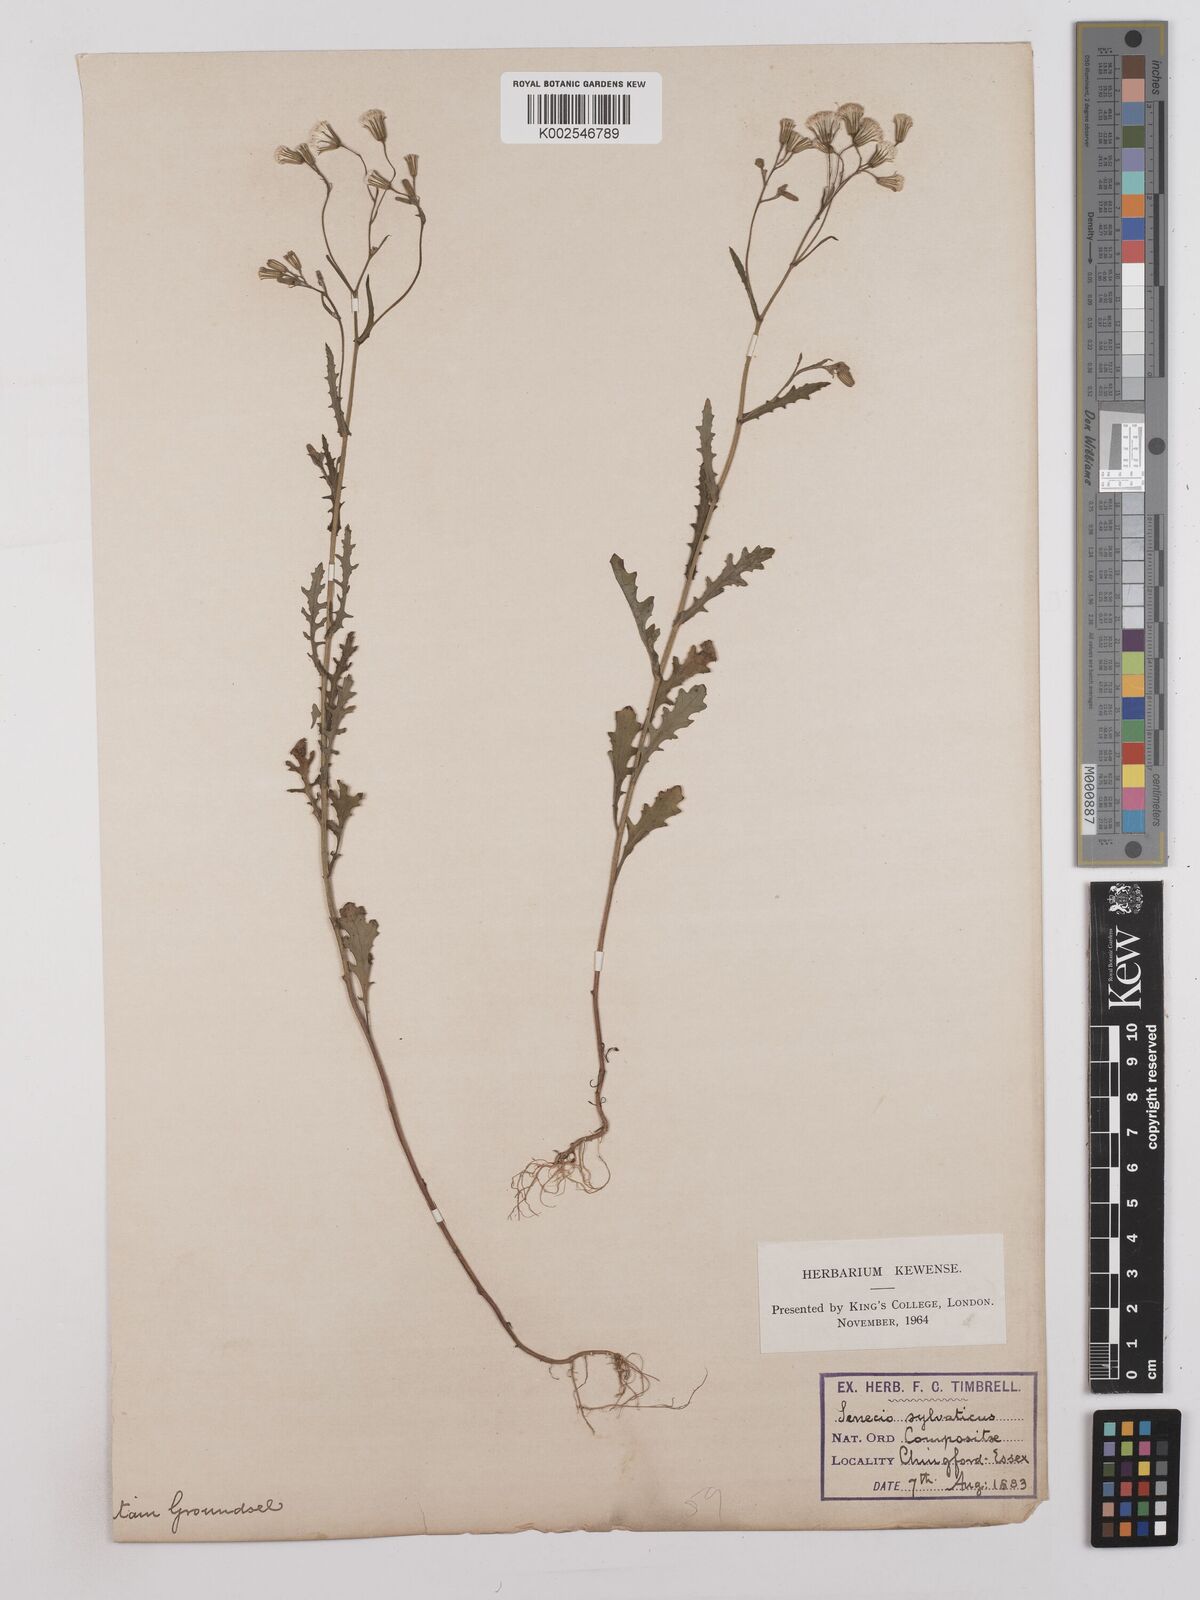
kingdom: Plantae
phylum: Tracheophyta
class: Magnoliopsida
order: Asterales
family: Asteraceae
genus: Senecio
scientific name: Senecio sylvaticus
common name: Woodland ragwort
